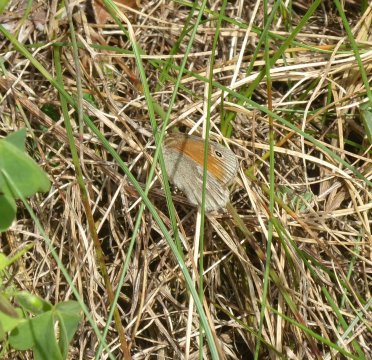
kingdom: Animalia
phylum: Arthropoda
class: Insecta
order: Lepidoptera
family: Nymphalidae
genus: Coenonympha
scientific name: Coenonympha tullia
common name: Large Heath
